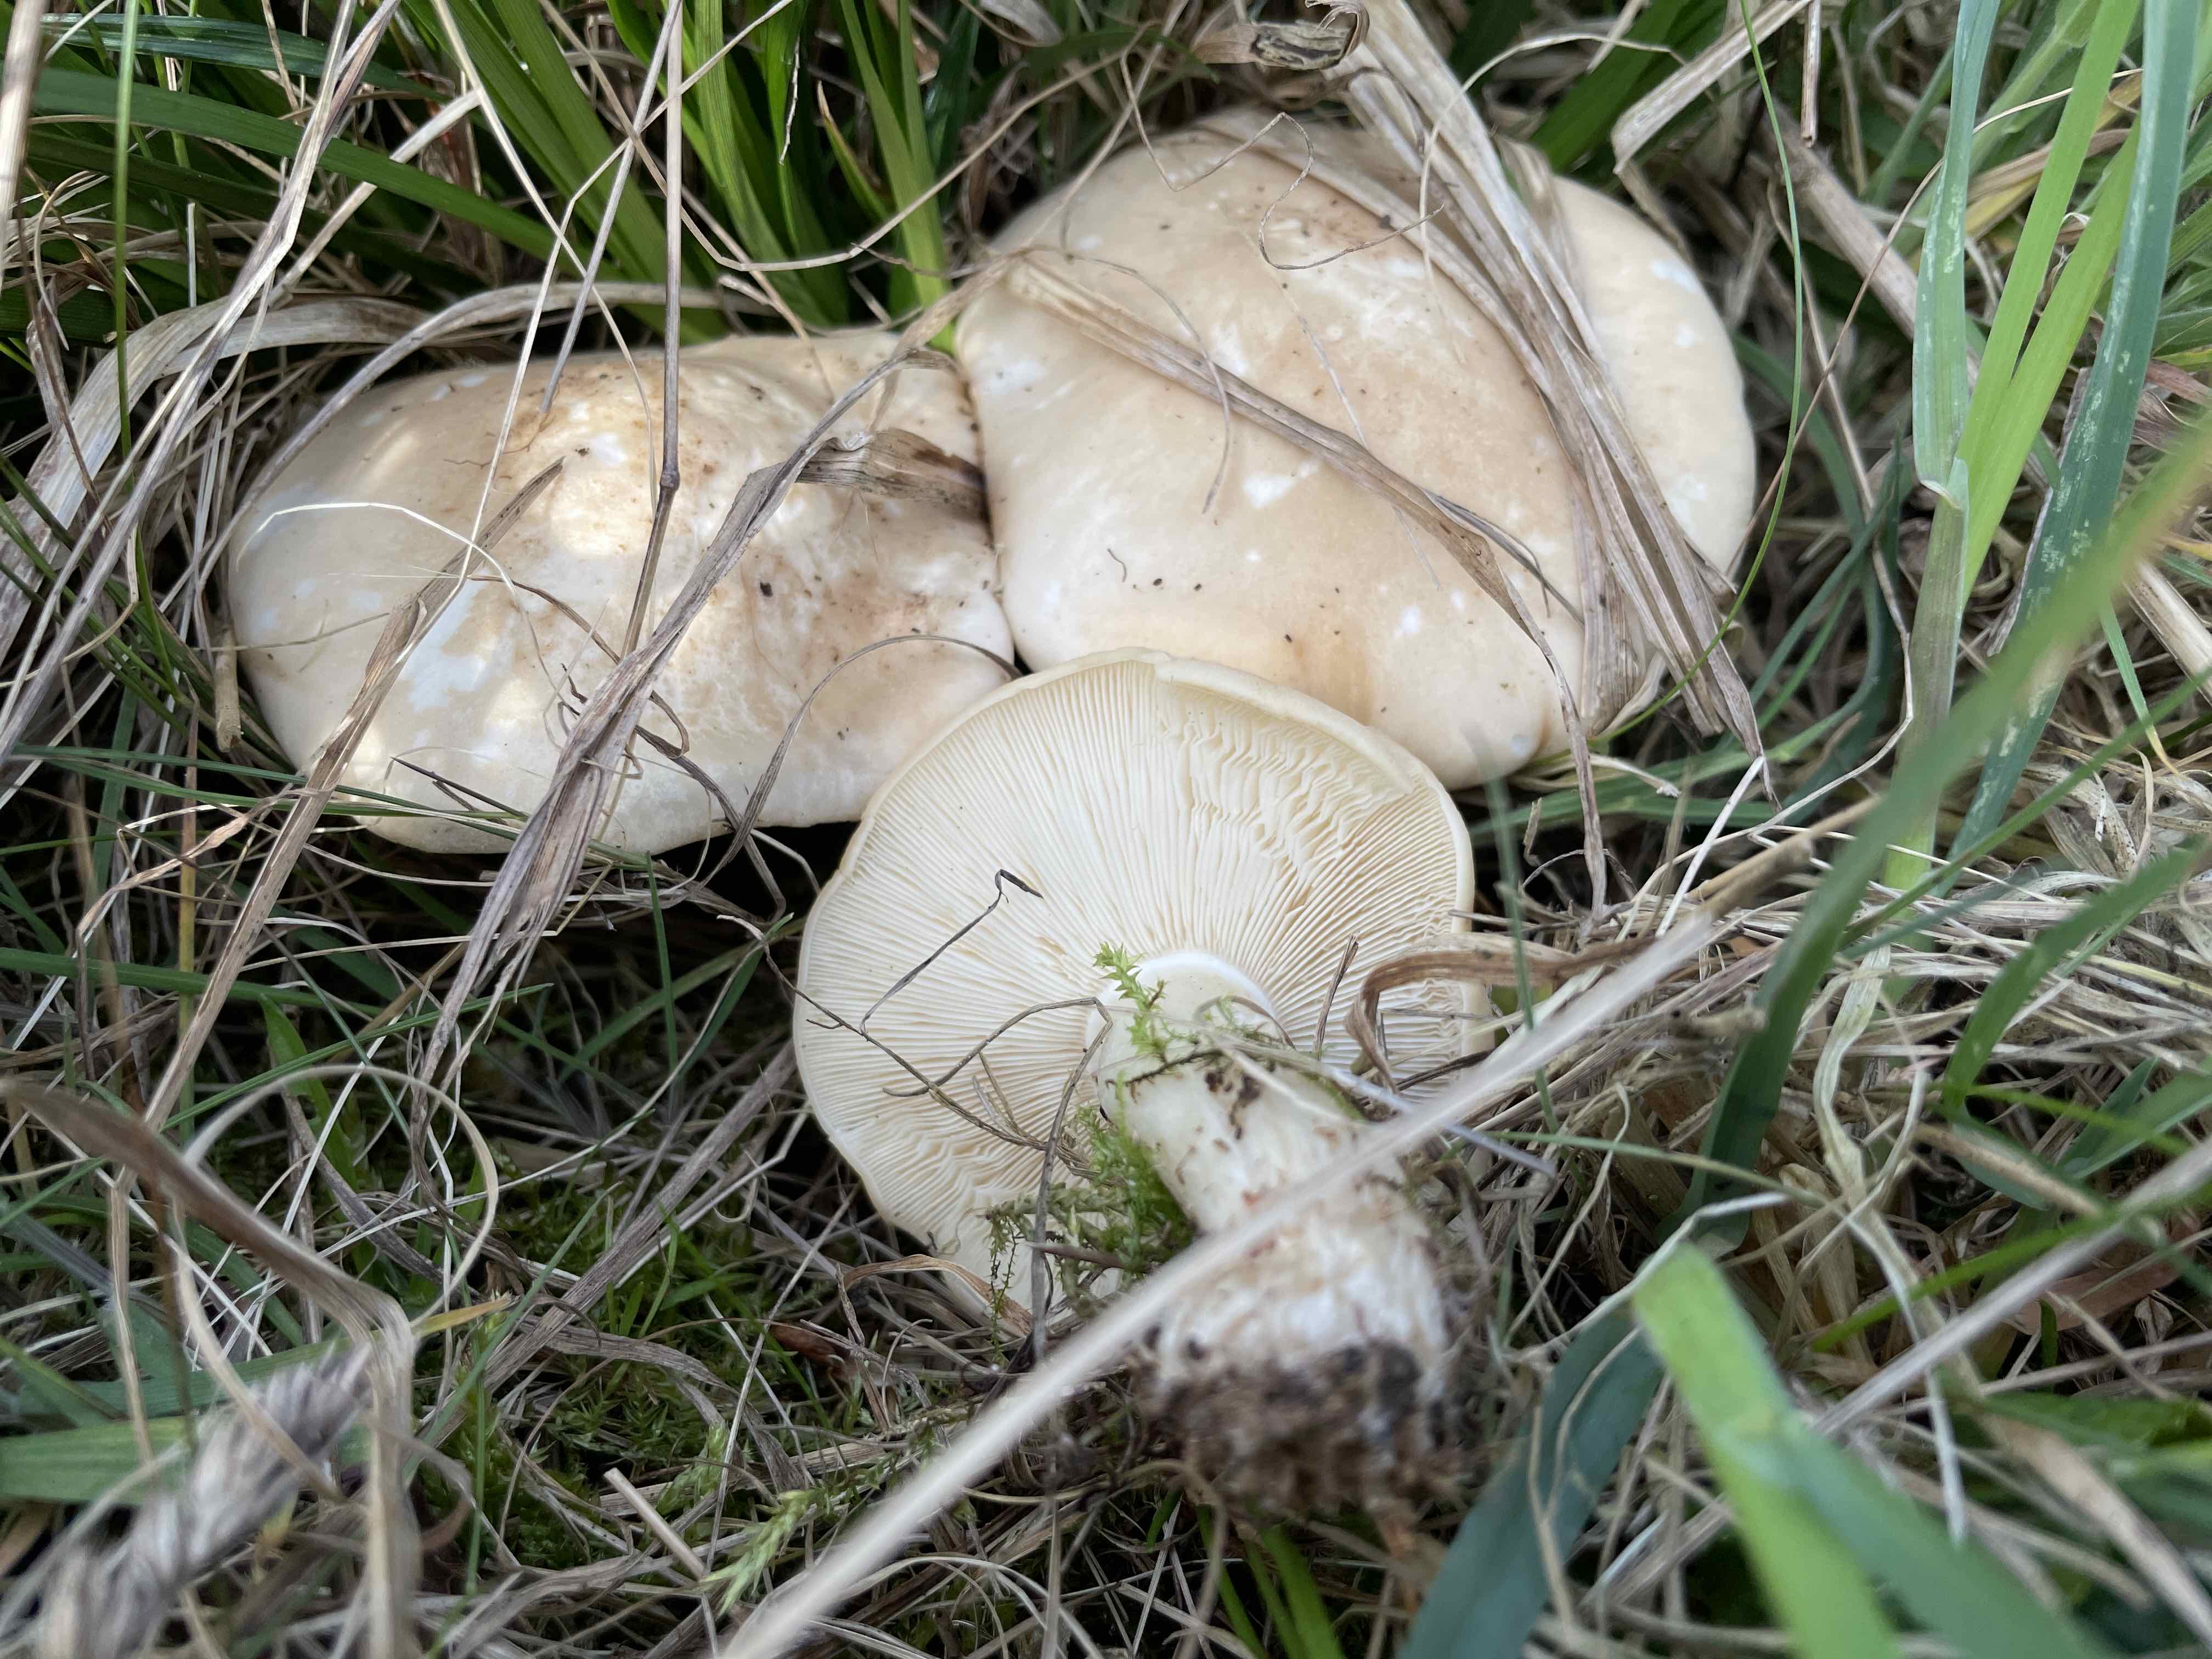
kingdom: Fungi
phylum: Basidiomycota
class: Agaricomycetes
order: Agaricales
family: Lyophyllaceae
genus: Calocybe
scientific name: Calocybe gambosa
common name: vårmusseron
